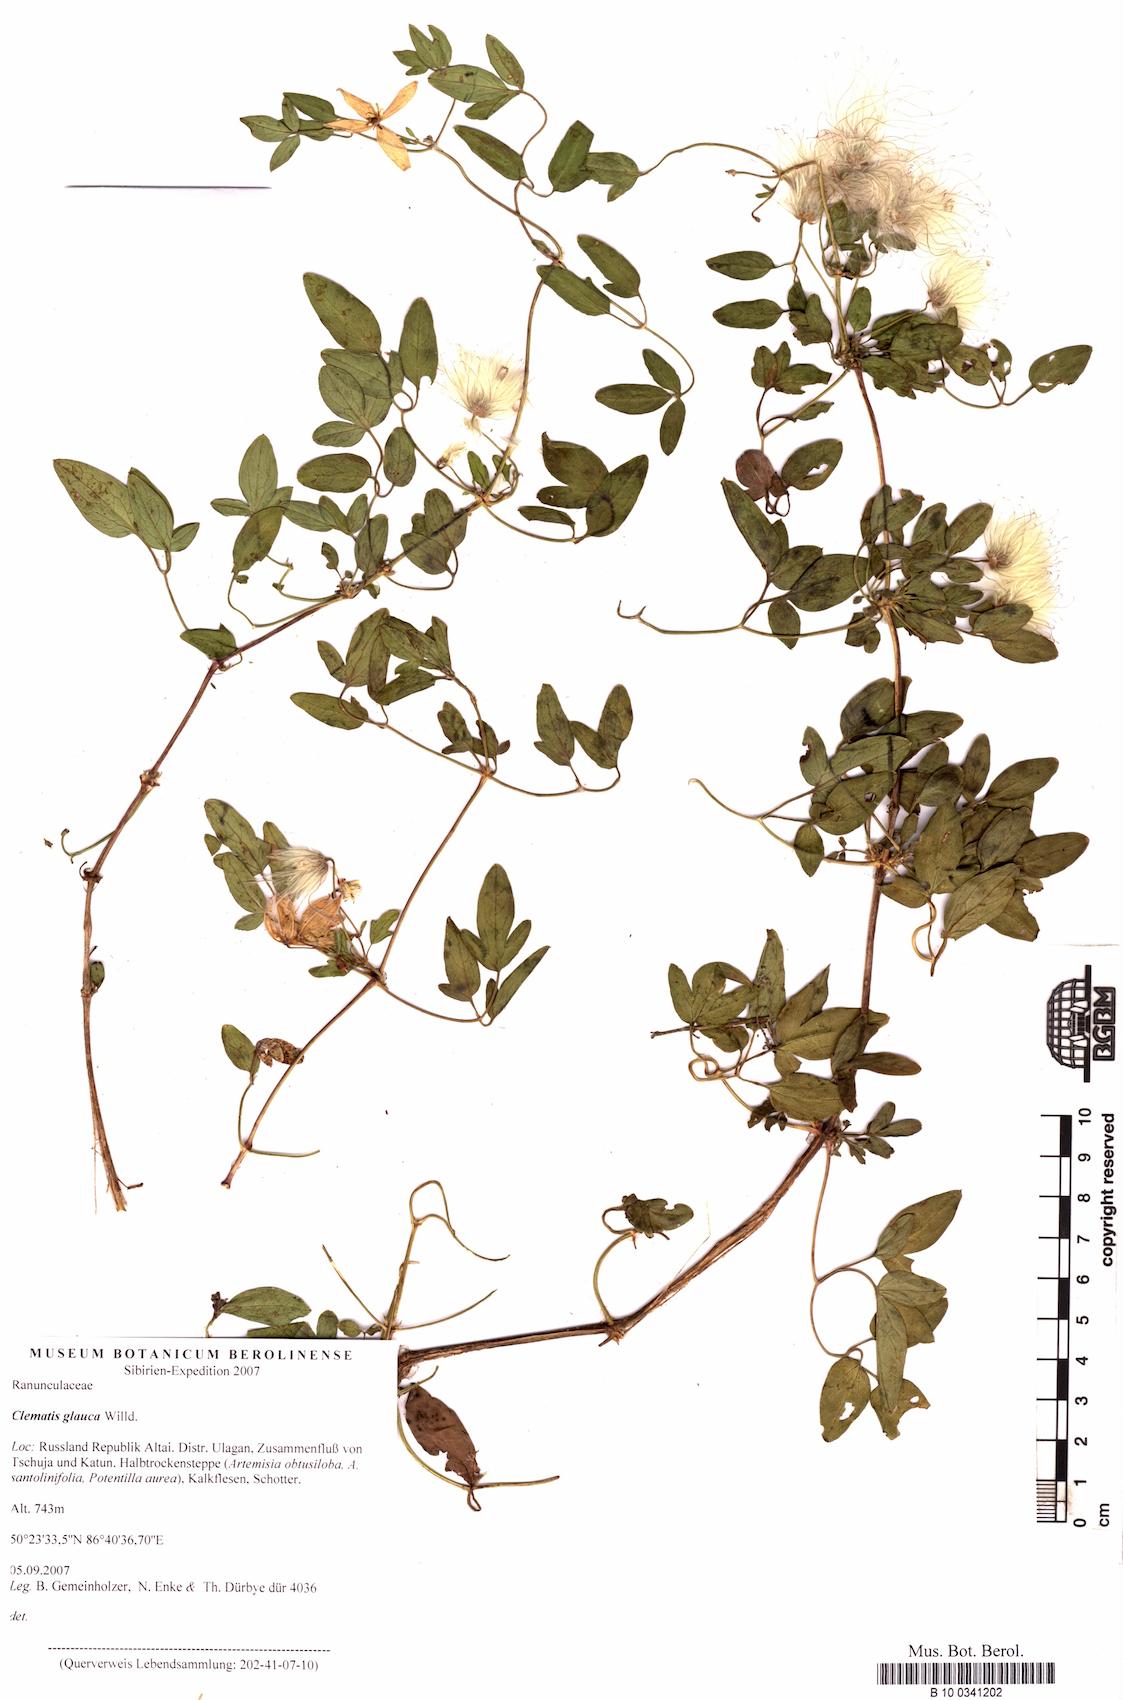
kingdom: Plantae
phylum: Tracheophyta
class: Magnoliopsida
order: Ranunculales
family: Ranunculaceae
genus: Clematis
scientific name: Clematis glauca
